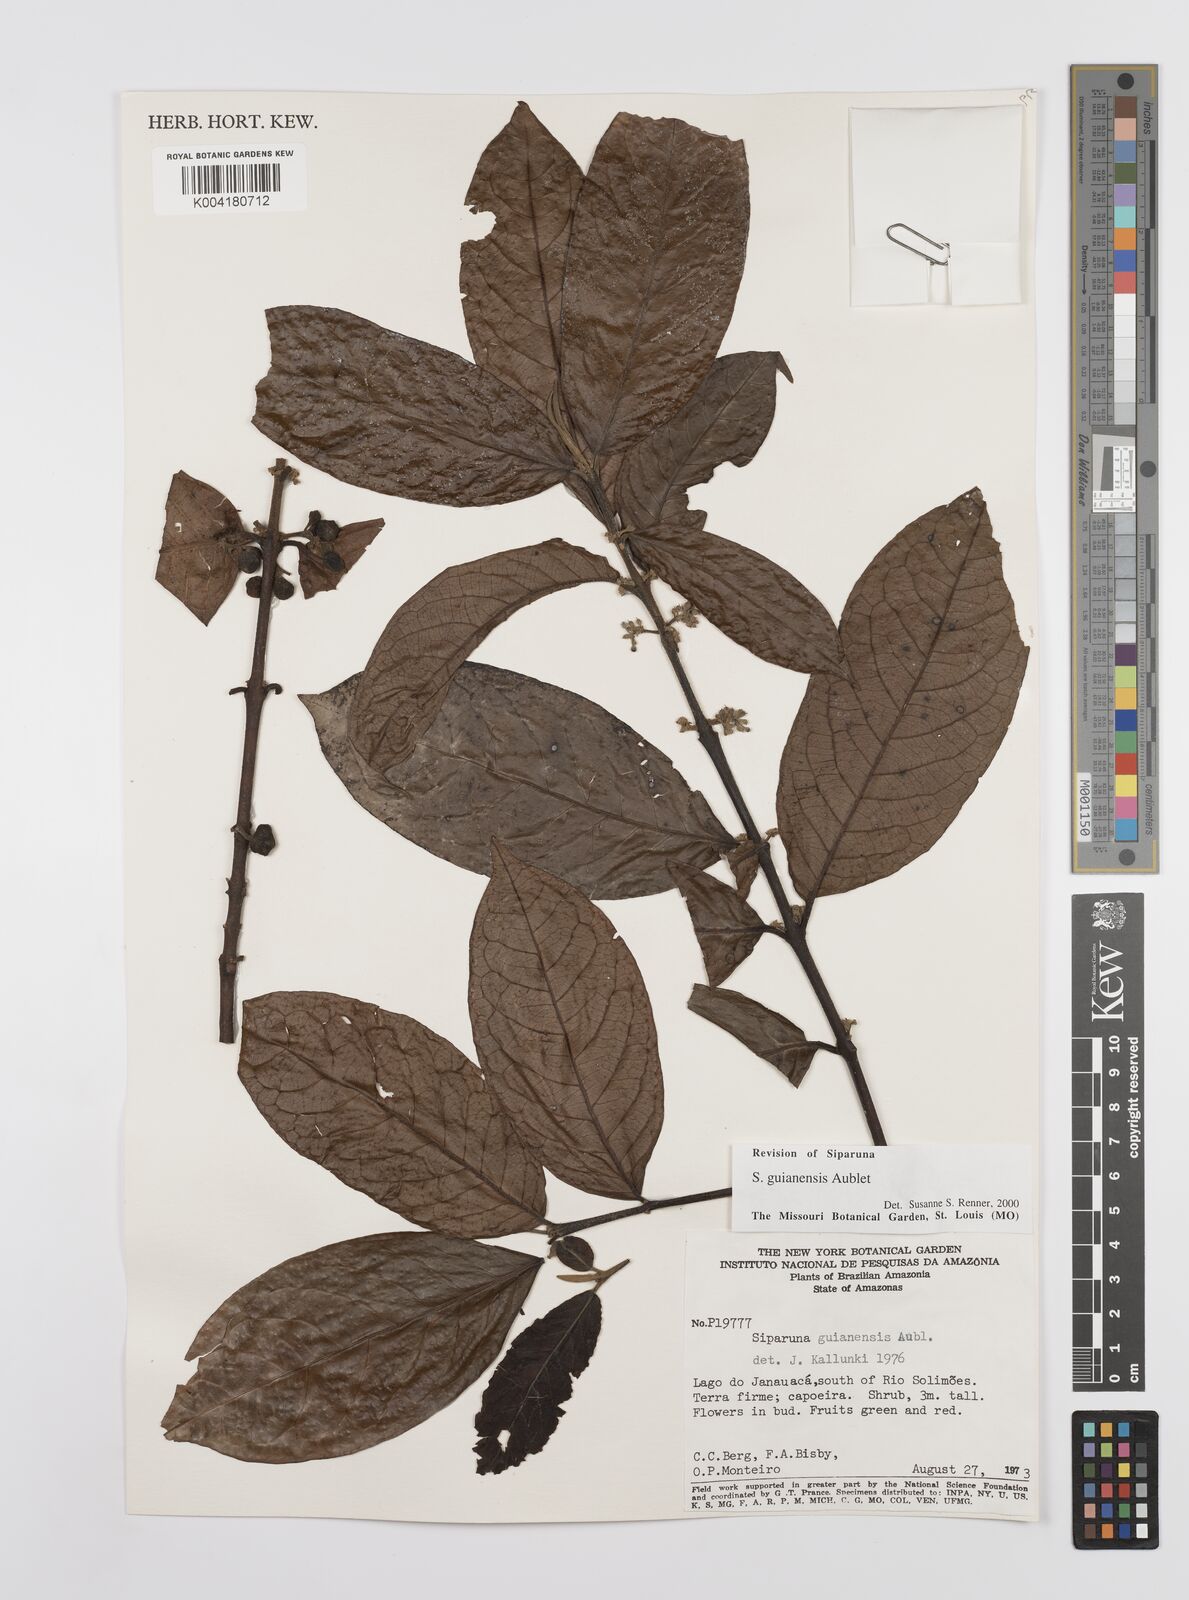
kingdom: Plantae
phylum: Tracheophyta
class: Magnoliopsida
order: Laurales
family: Siparunaceae
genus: Siparuna
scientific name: Siparuna guianensis
